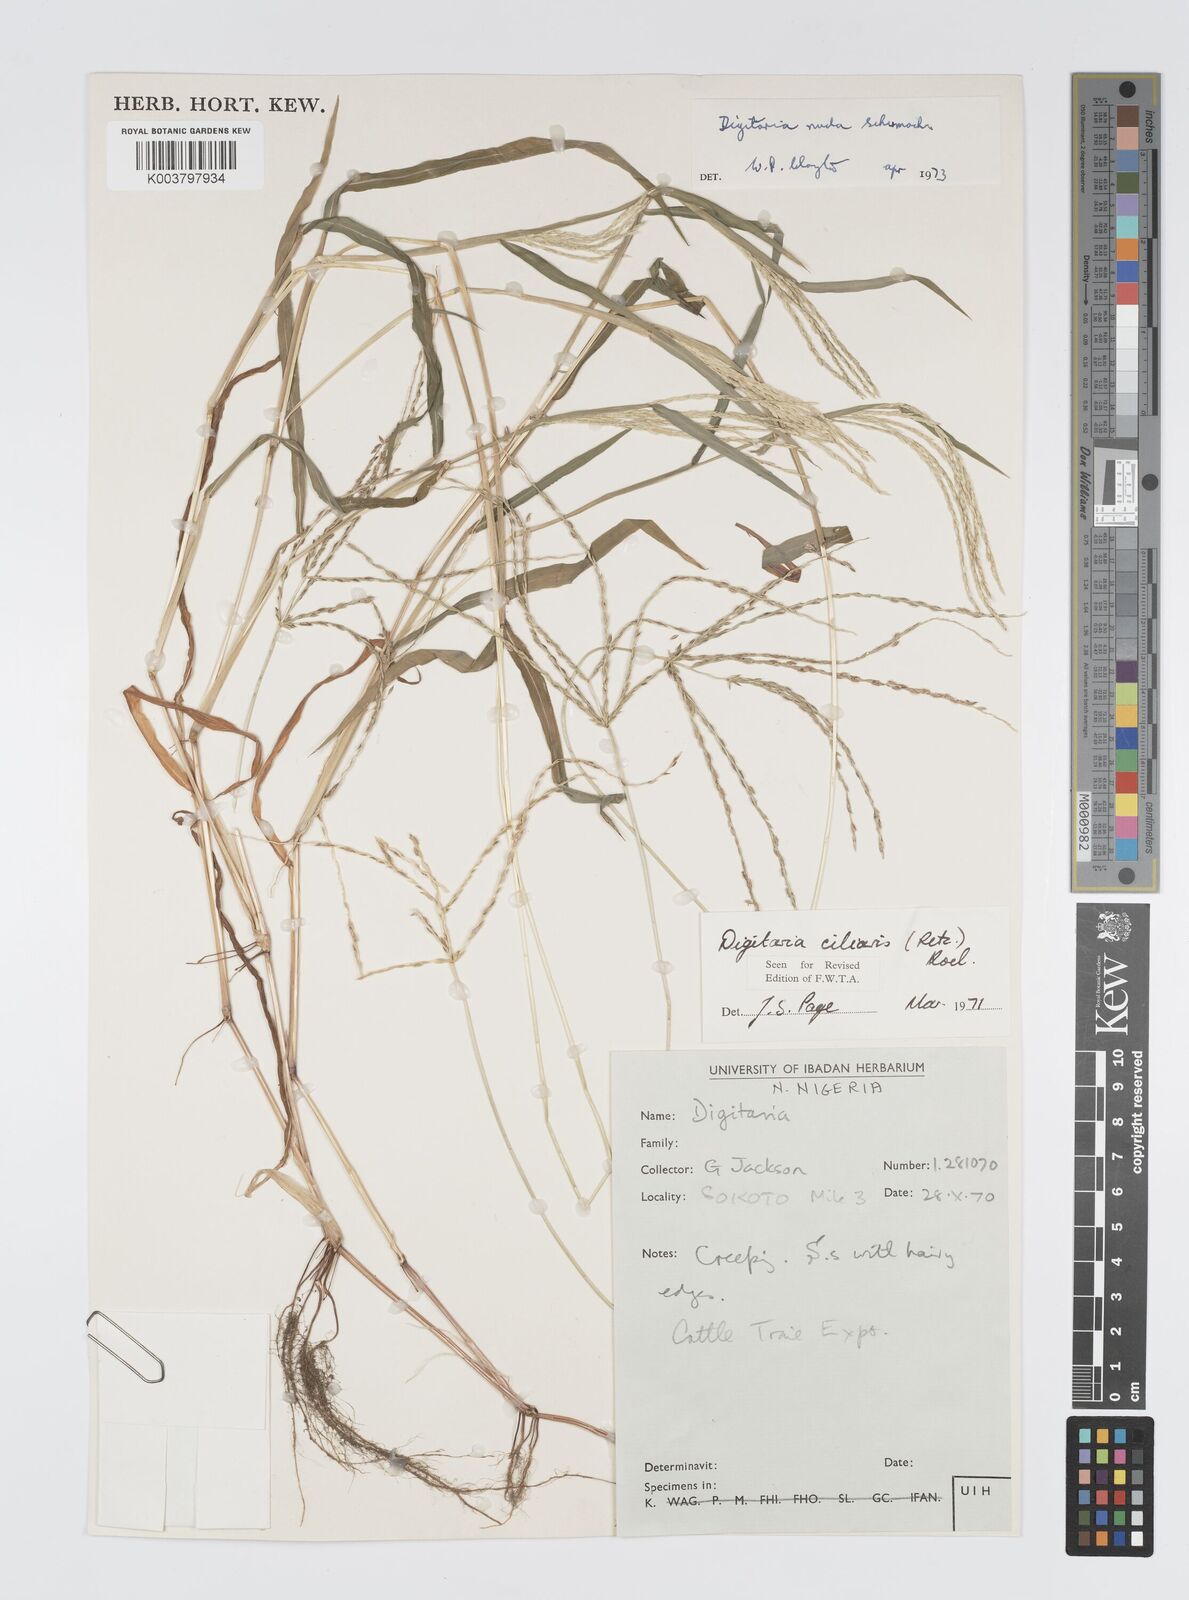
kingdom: Plantae
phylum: Tracheophyta
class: Liliopsida
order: Poales
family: Poaceae
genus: Digitaria
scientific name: Digitaria nuda
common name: Naked crabgrass
